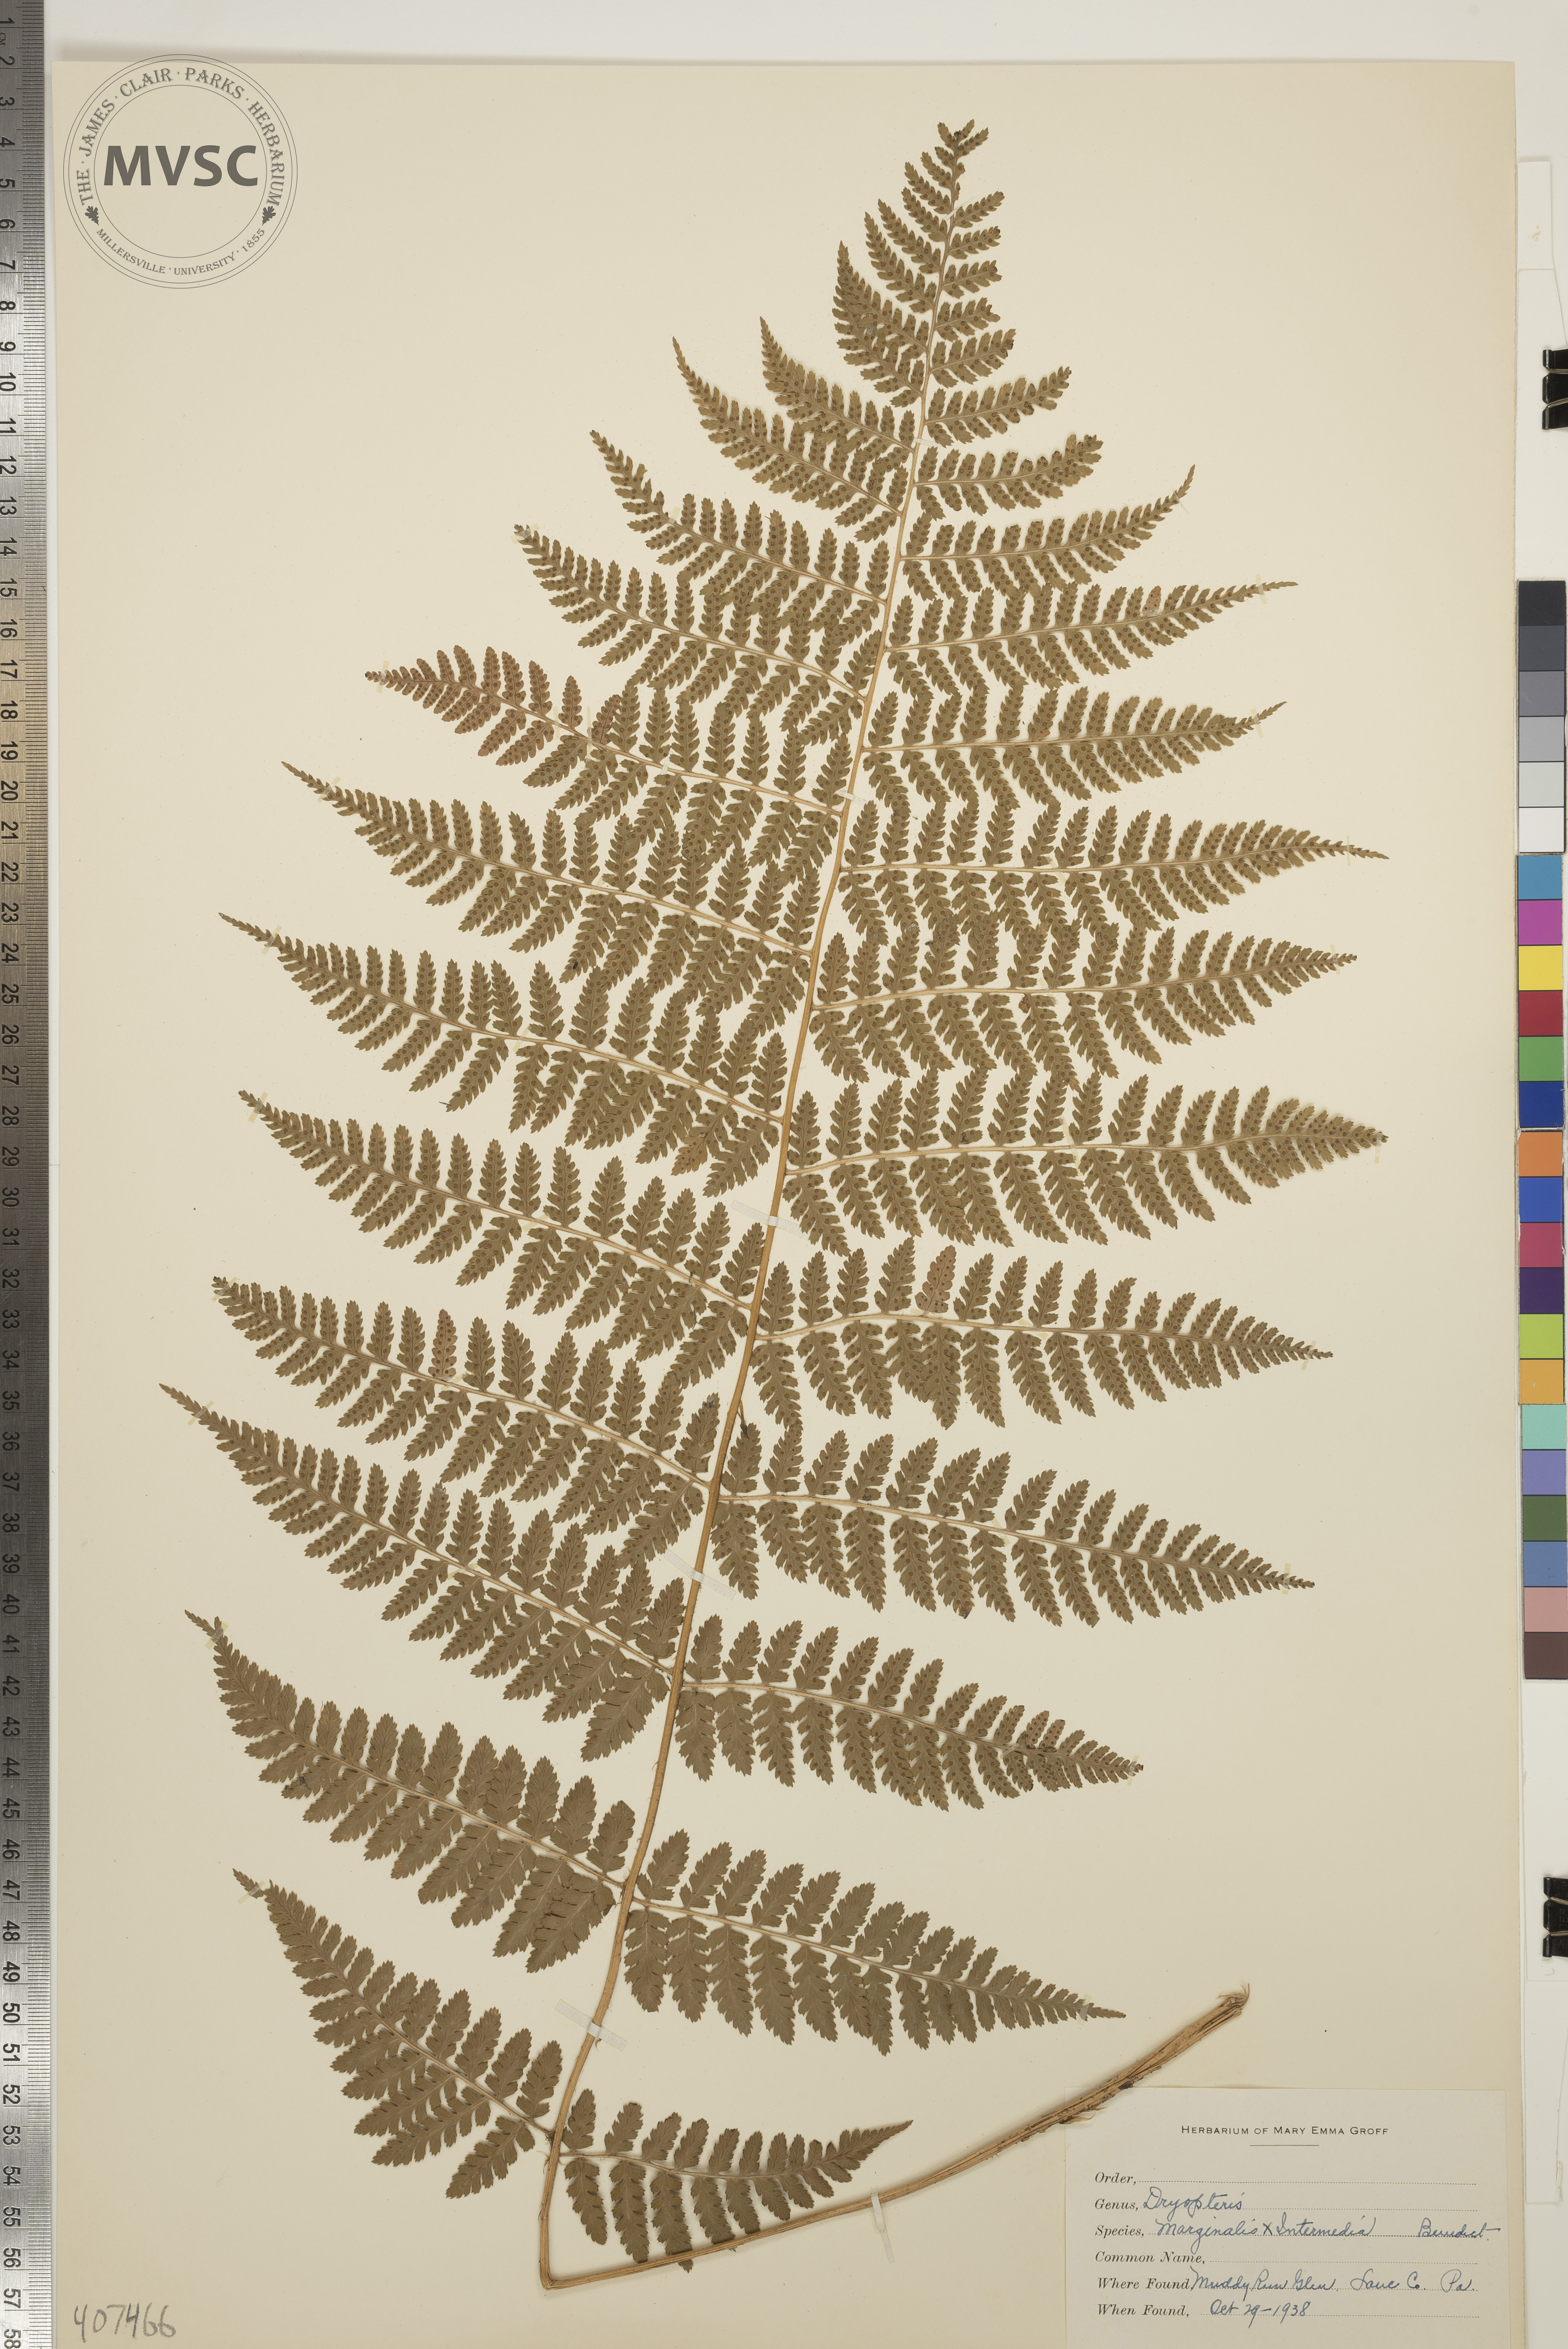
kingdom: Plantae
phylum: Tracheophyta
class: Polypodiopsida
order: Polypodiales
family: Dryopteridaceae
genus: Dryopteris
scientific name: Dryopteris
